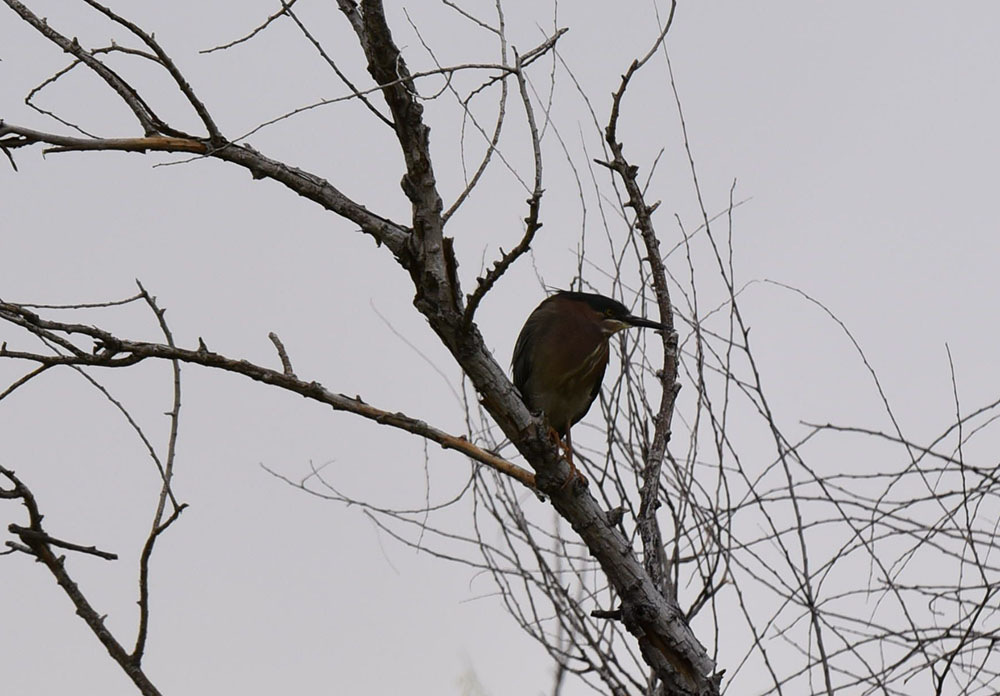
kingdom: Animalia
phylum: Chordata
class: Aves
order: Pelecaniformes
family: Ardeidae
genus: Butorides
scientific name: Butorides virescens
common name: Green heron
